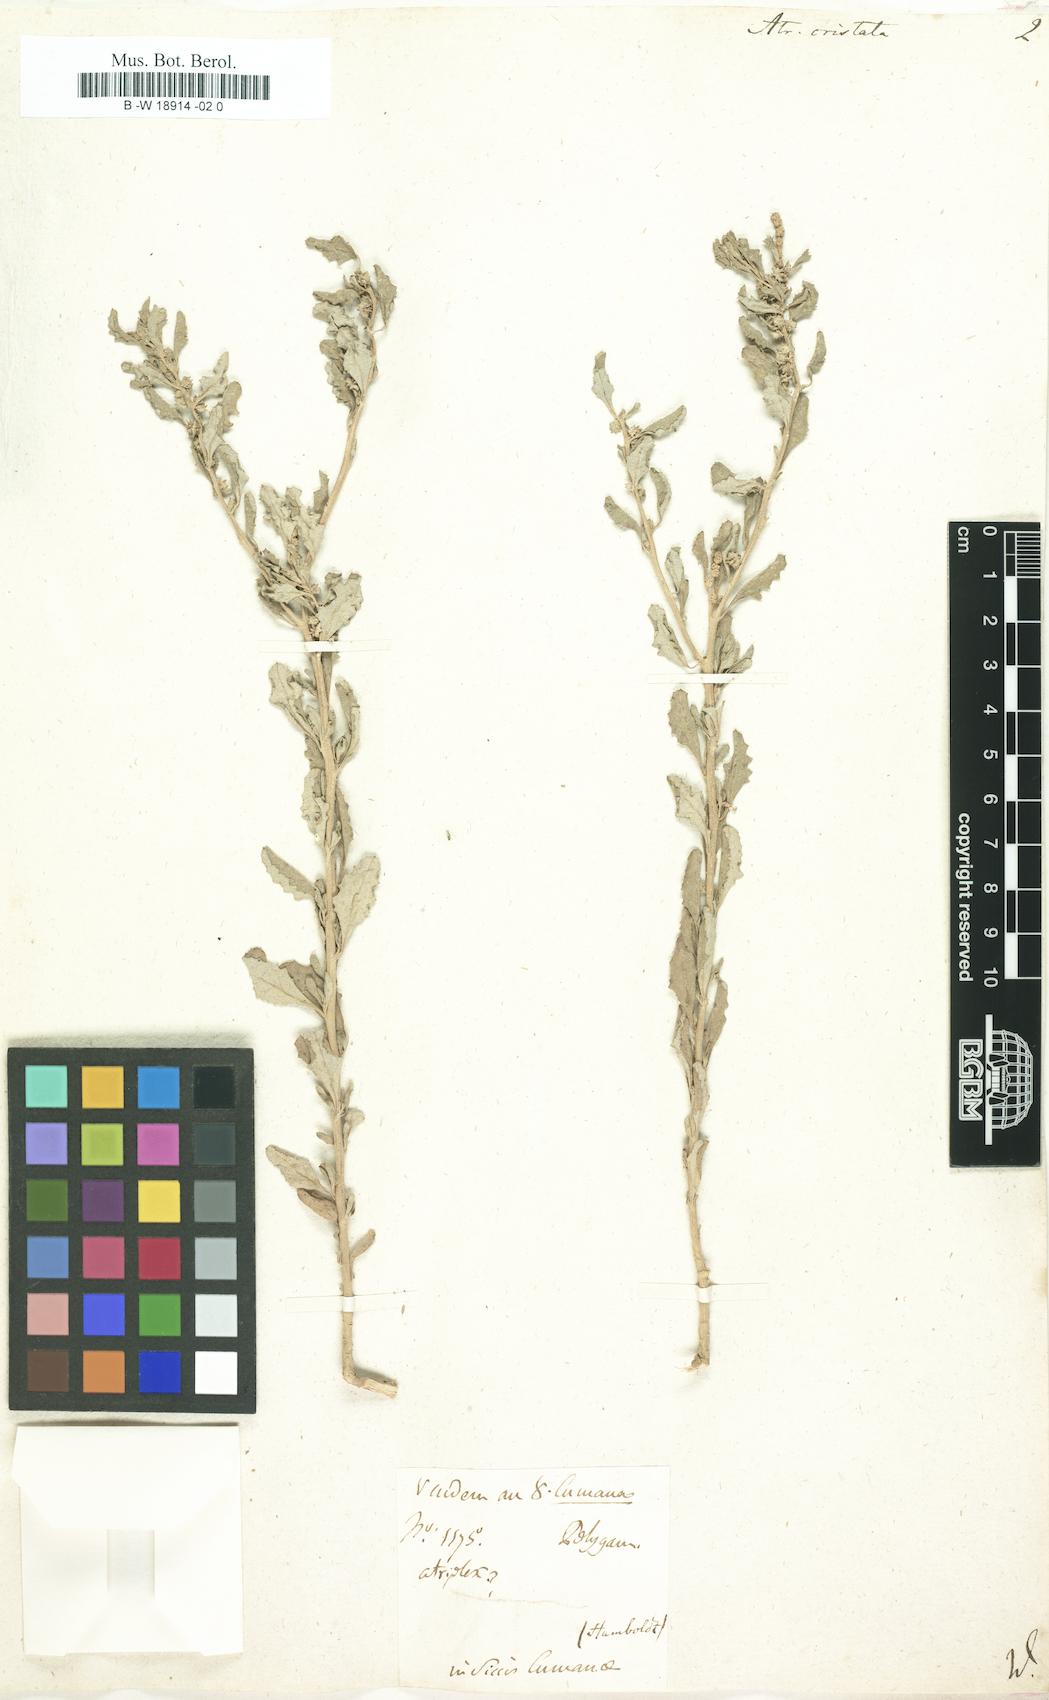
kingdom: Plantae
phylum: Tracheophyta
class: Magnoliopsida
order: Caryophyllales
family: Amaranthaceae
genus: Atriplex
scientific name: Atriplex cristata
